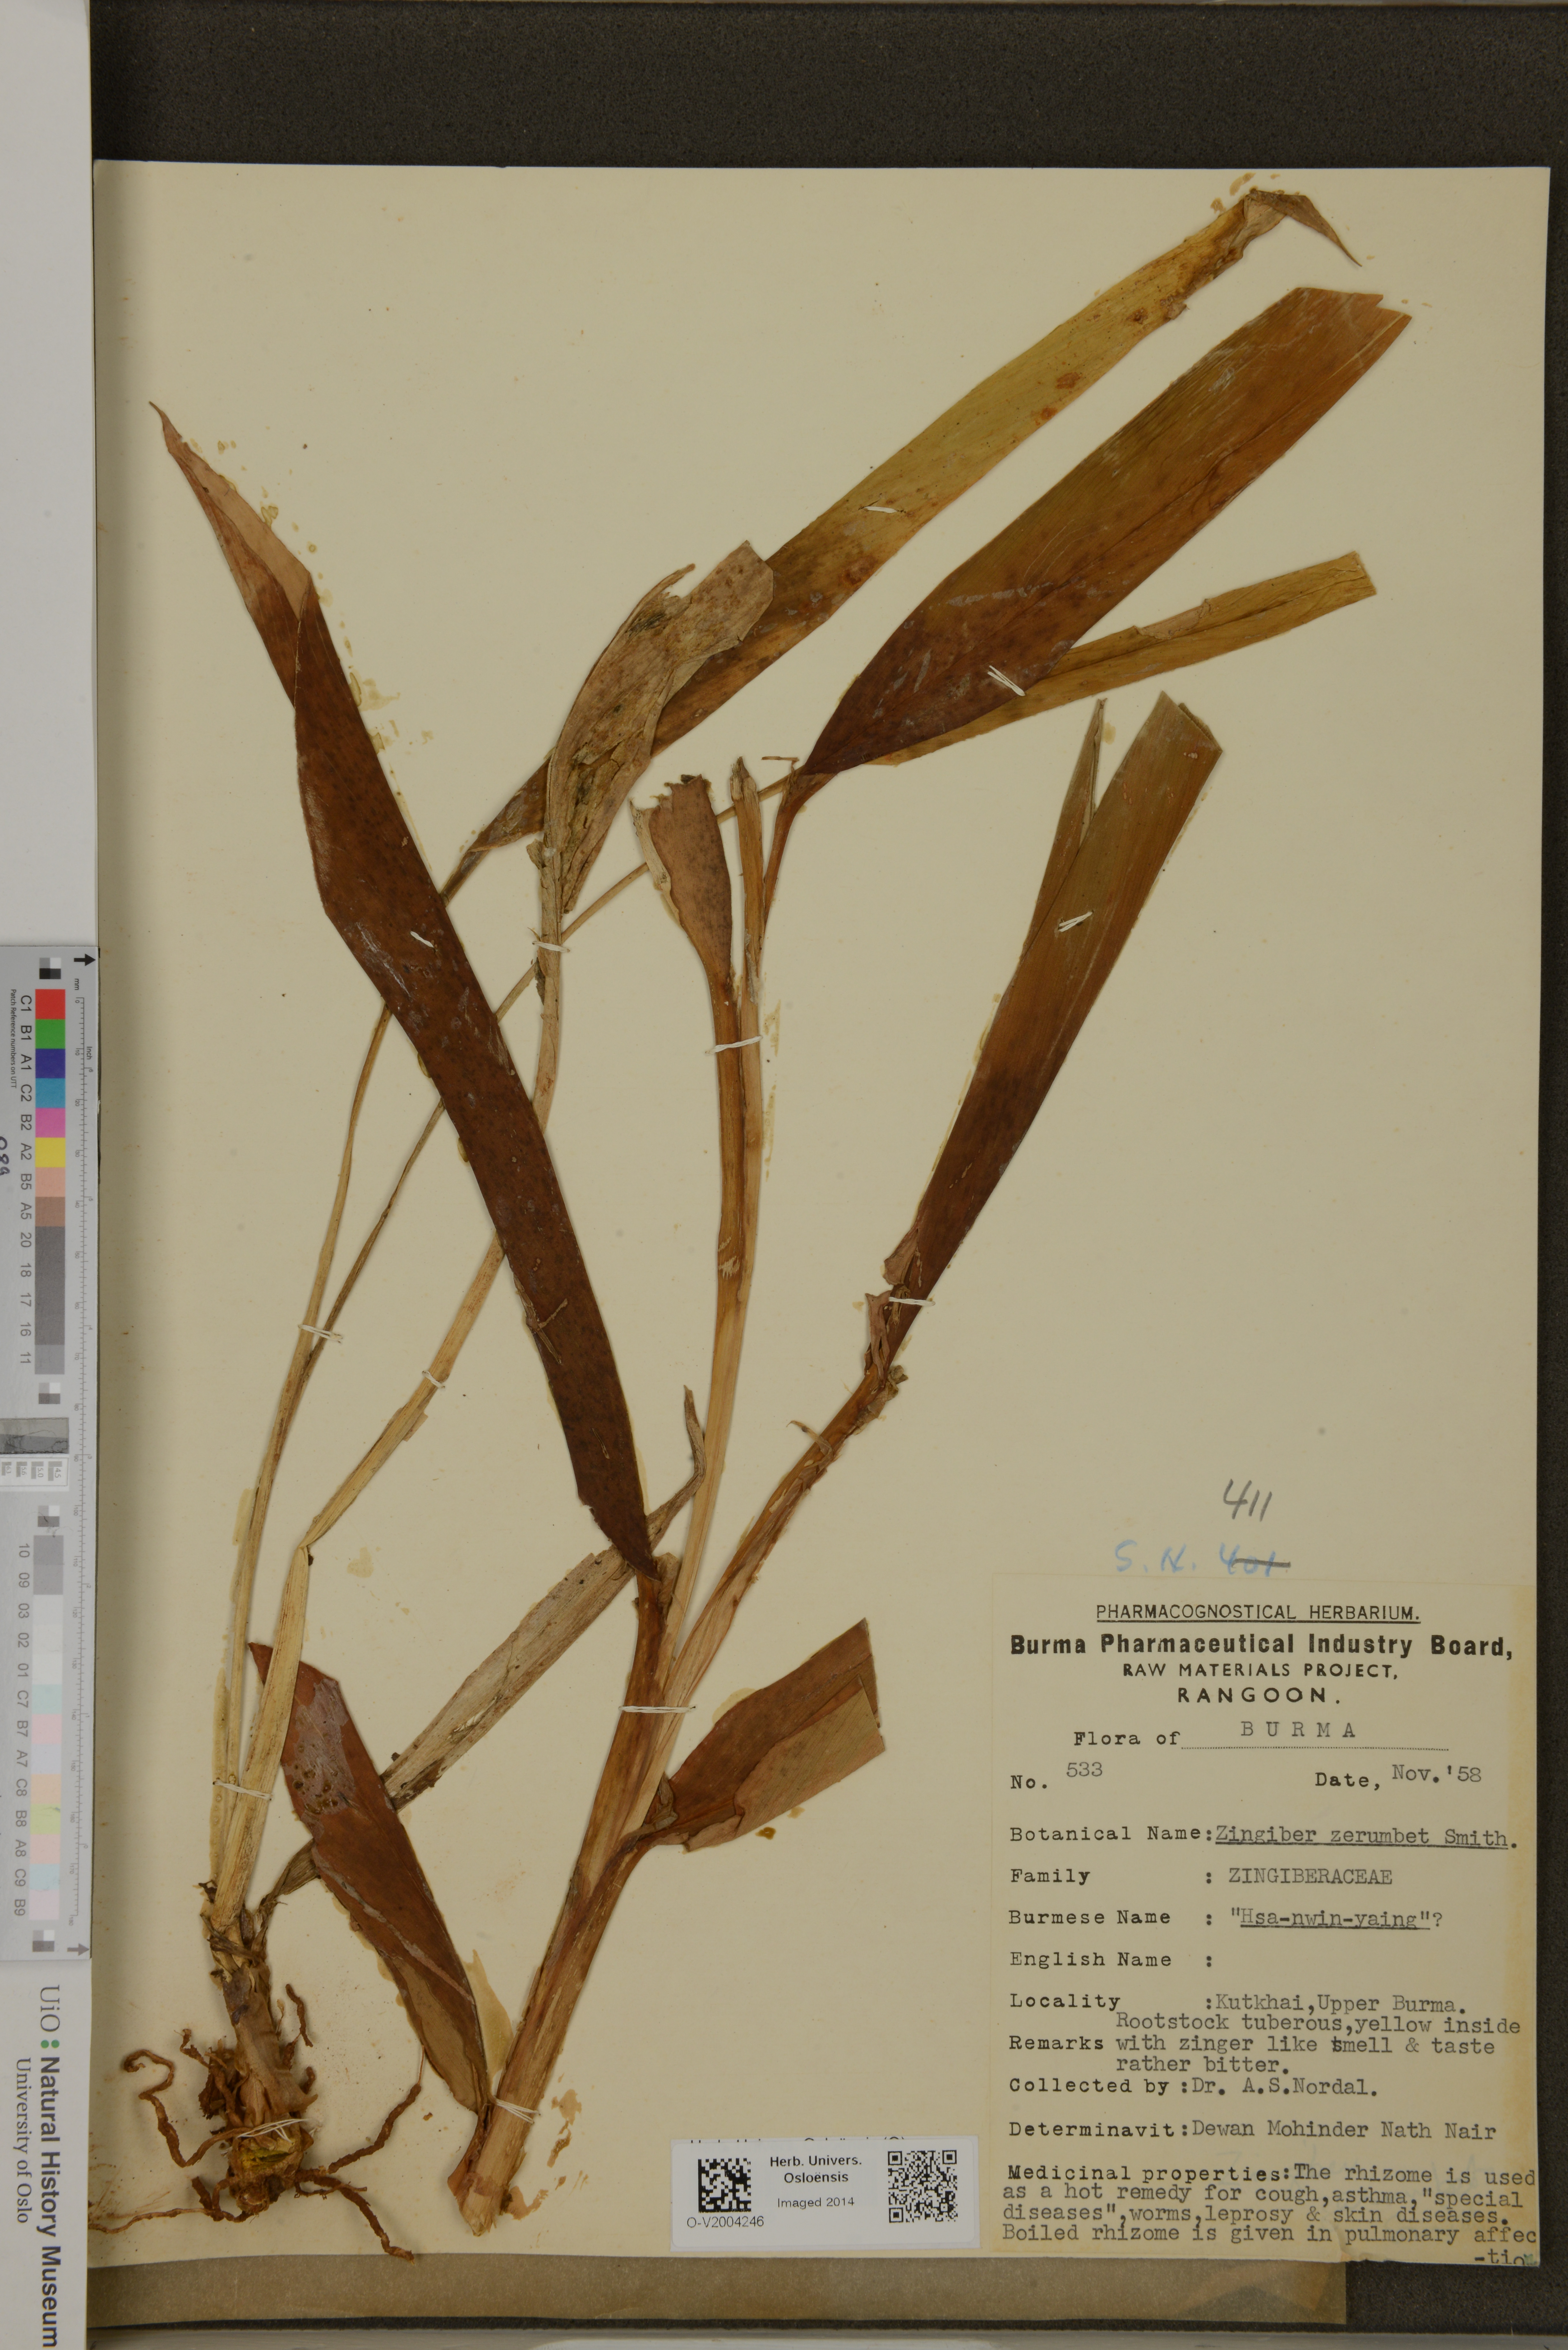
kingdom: Plantae
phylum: Tracheophyta
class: Liliopsida
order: Zingiberales
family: Zingiberaceae
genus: Zingiber
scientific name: Zingiber zerumbet
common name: Bitter ginger
